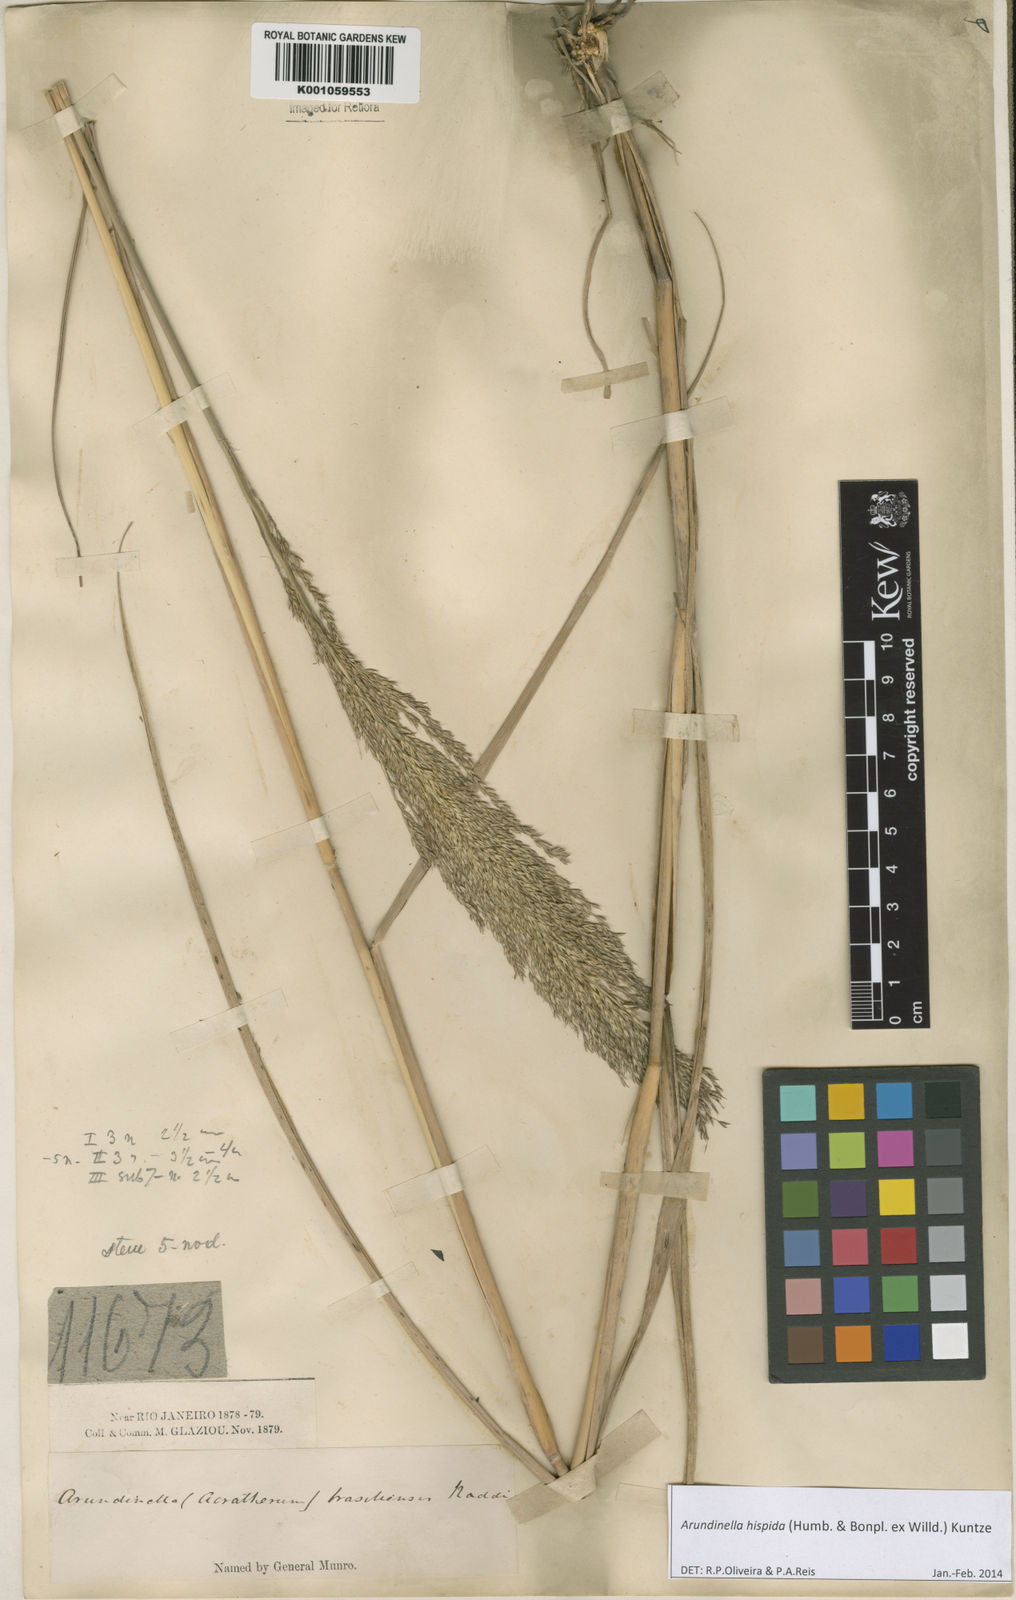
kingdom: Plantae
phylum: Tracheophyta
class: Liliopsida
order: Poales
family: Poaceae
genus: Arundinella
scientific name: Arundinella hispida
